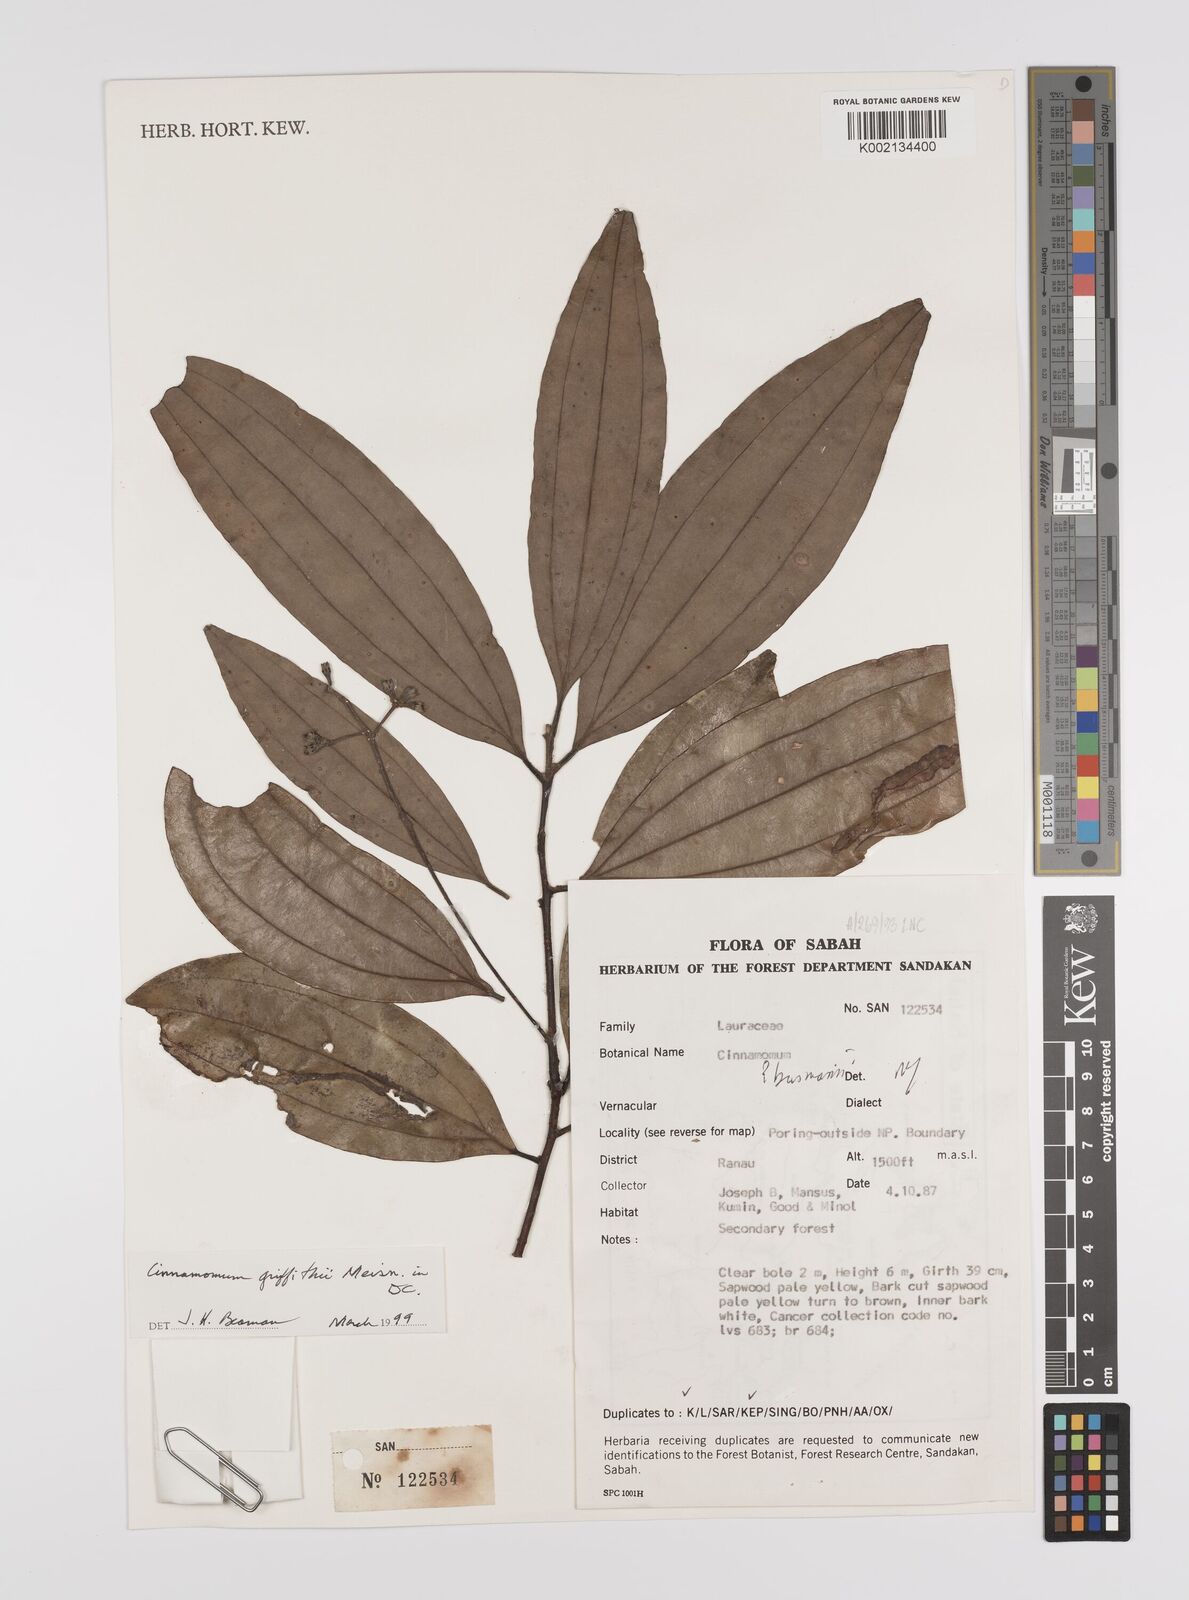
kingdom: Plantae
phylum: Tracheophyta
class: Magnoliopsida
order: Laurales
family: Lauraceae
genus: Cinnamomum
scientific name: Cinnamomum iners
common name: Wild cinnamon
